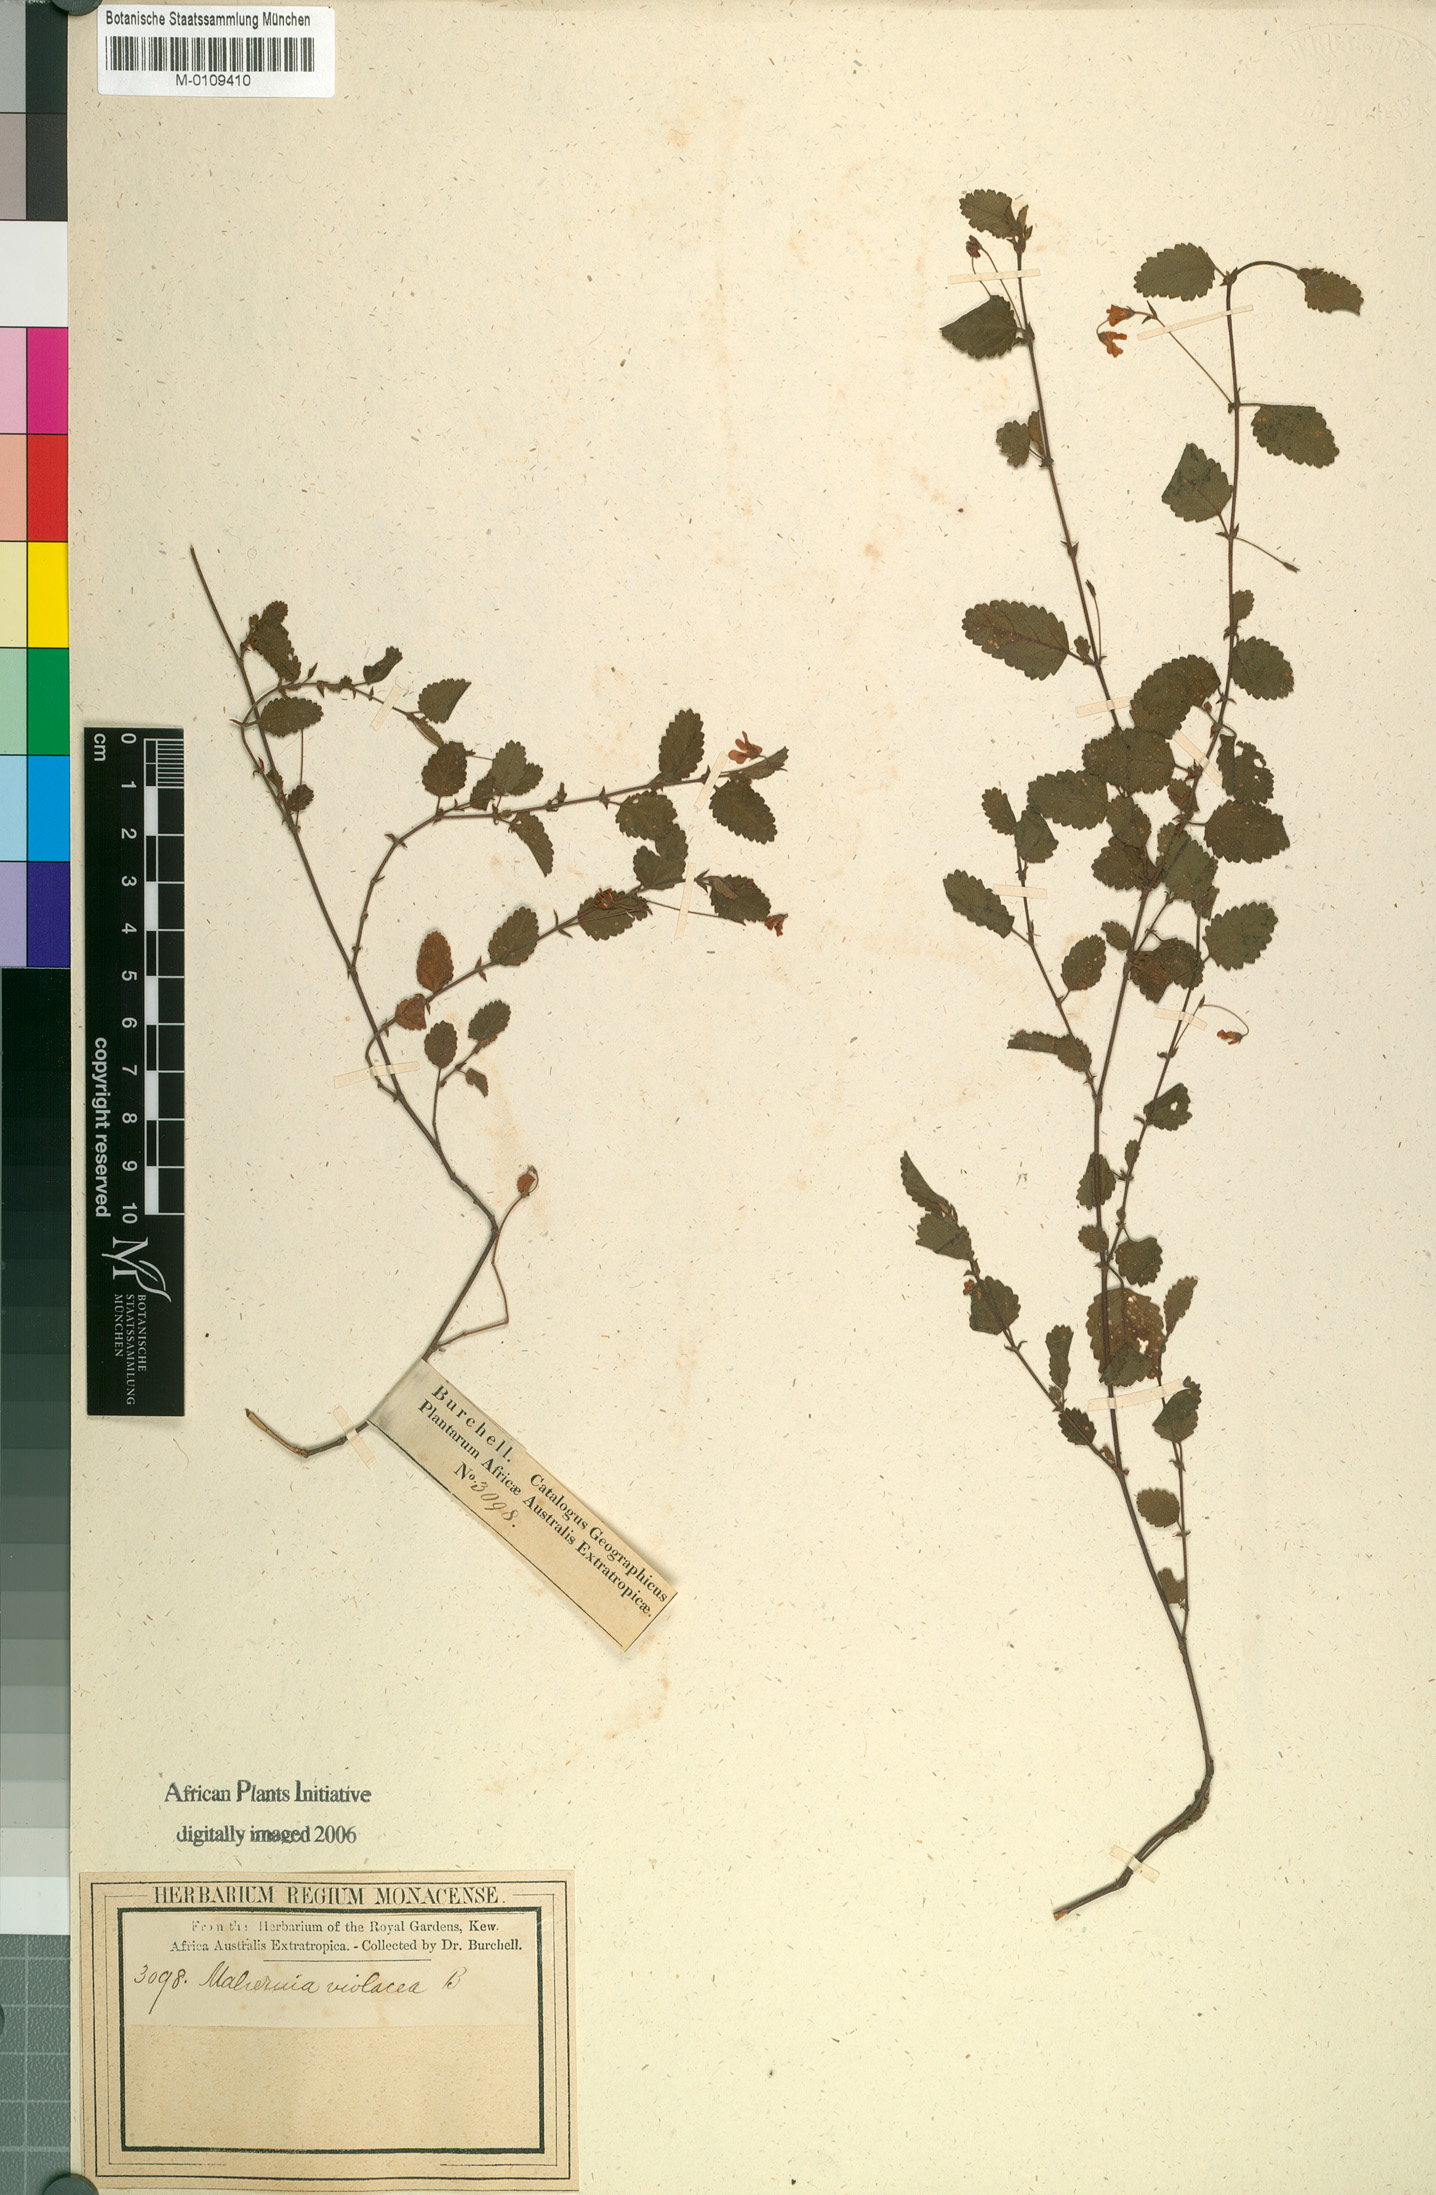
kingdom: Plantae
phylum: Tracheophyta
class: Magnoliopsida
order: Malvales
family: Malvaceae
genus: Hermannia
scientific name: Hermannia violacea
